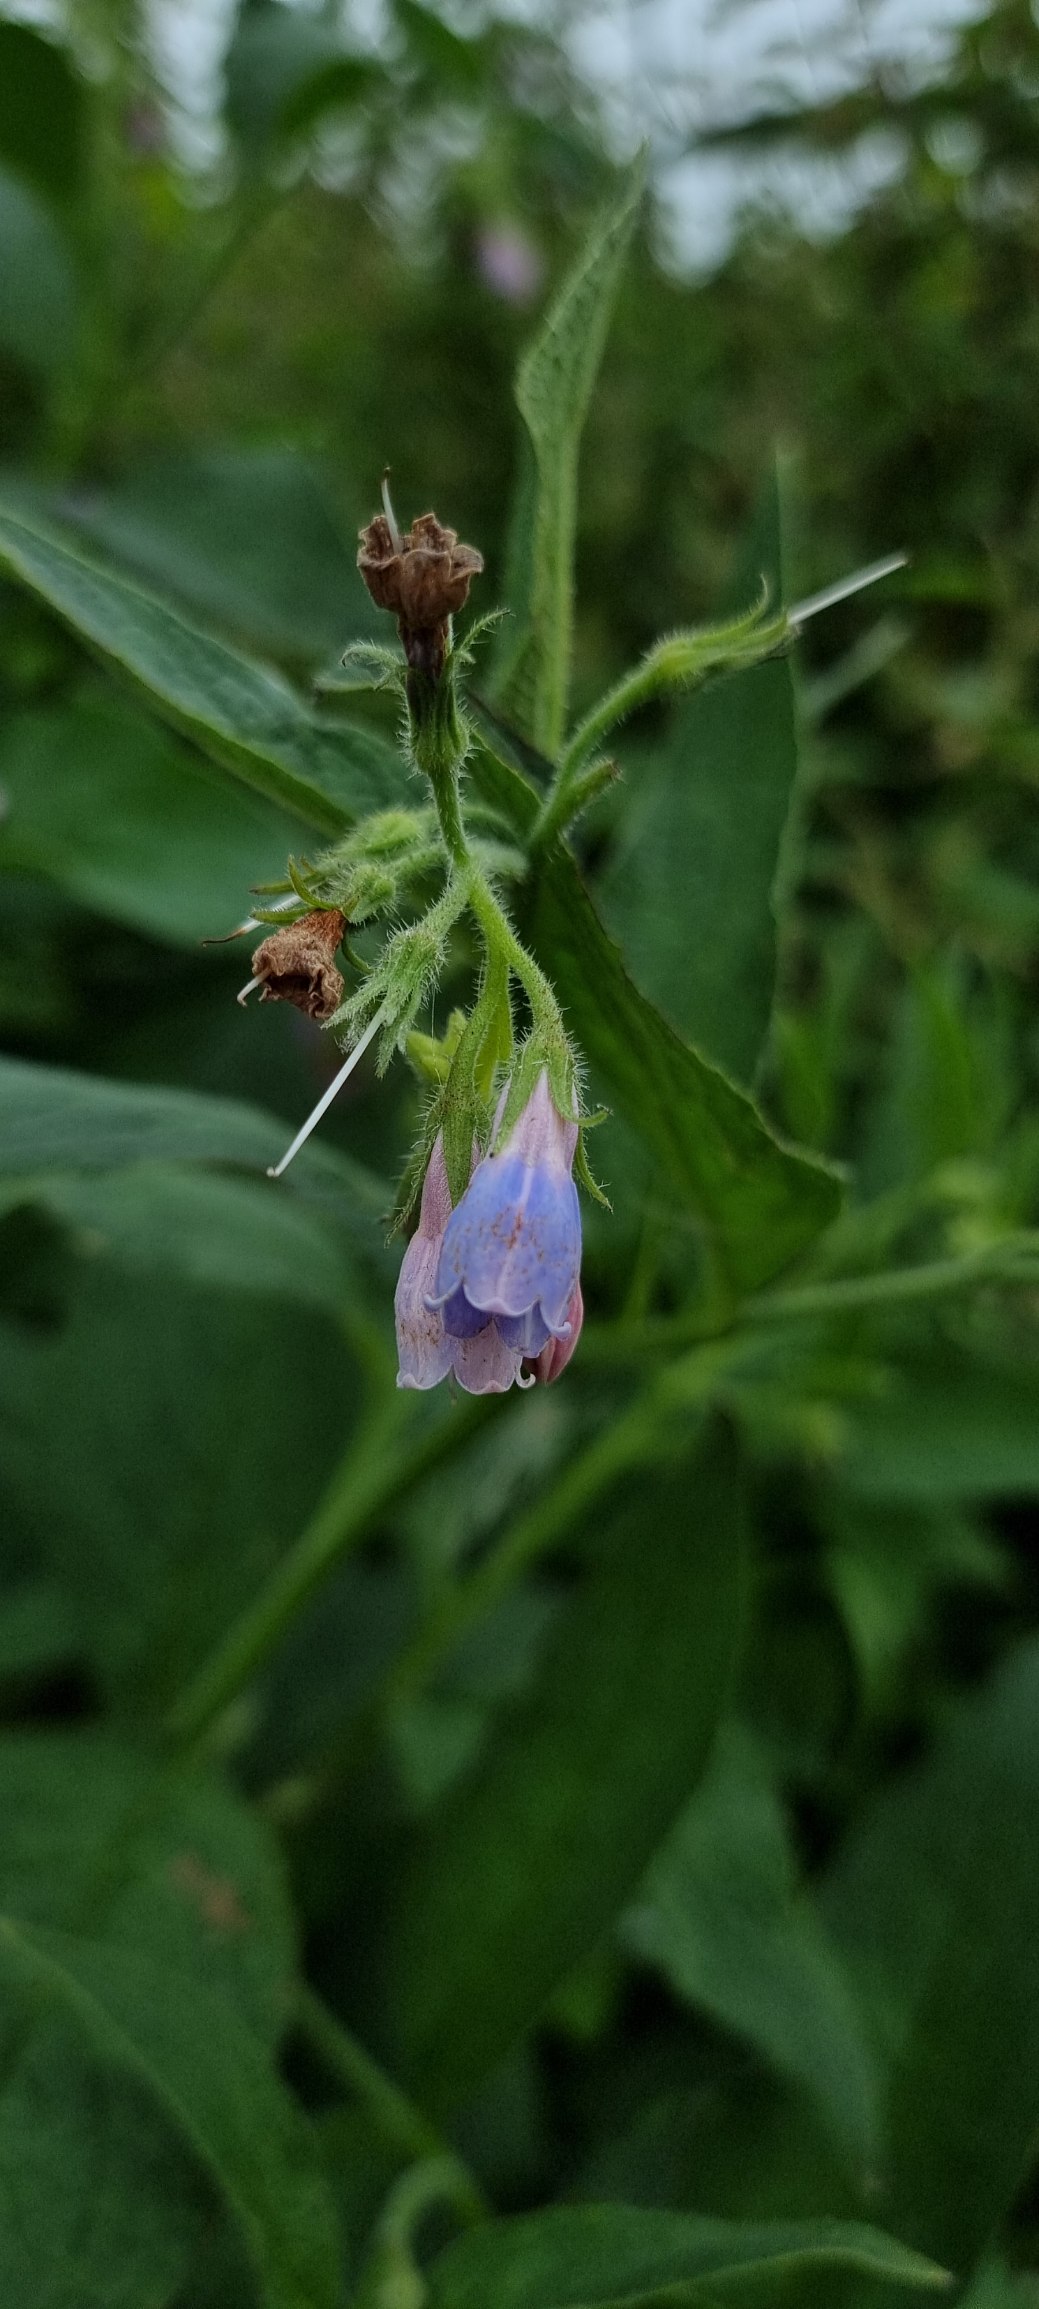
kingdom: Plantae
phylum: Tracheophyta
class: Magnoliopsida
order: Boraginales
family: Boraginaceae
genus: Symphytum
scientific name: Symphytum uplandicum
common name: Foder-kulsukker
